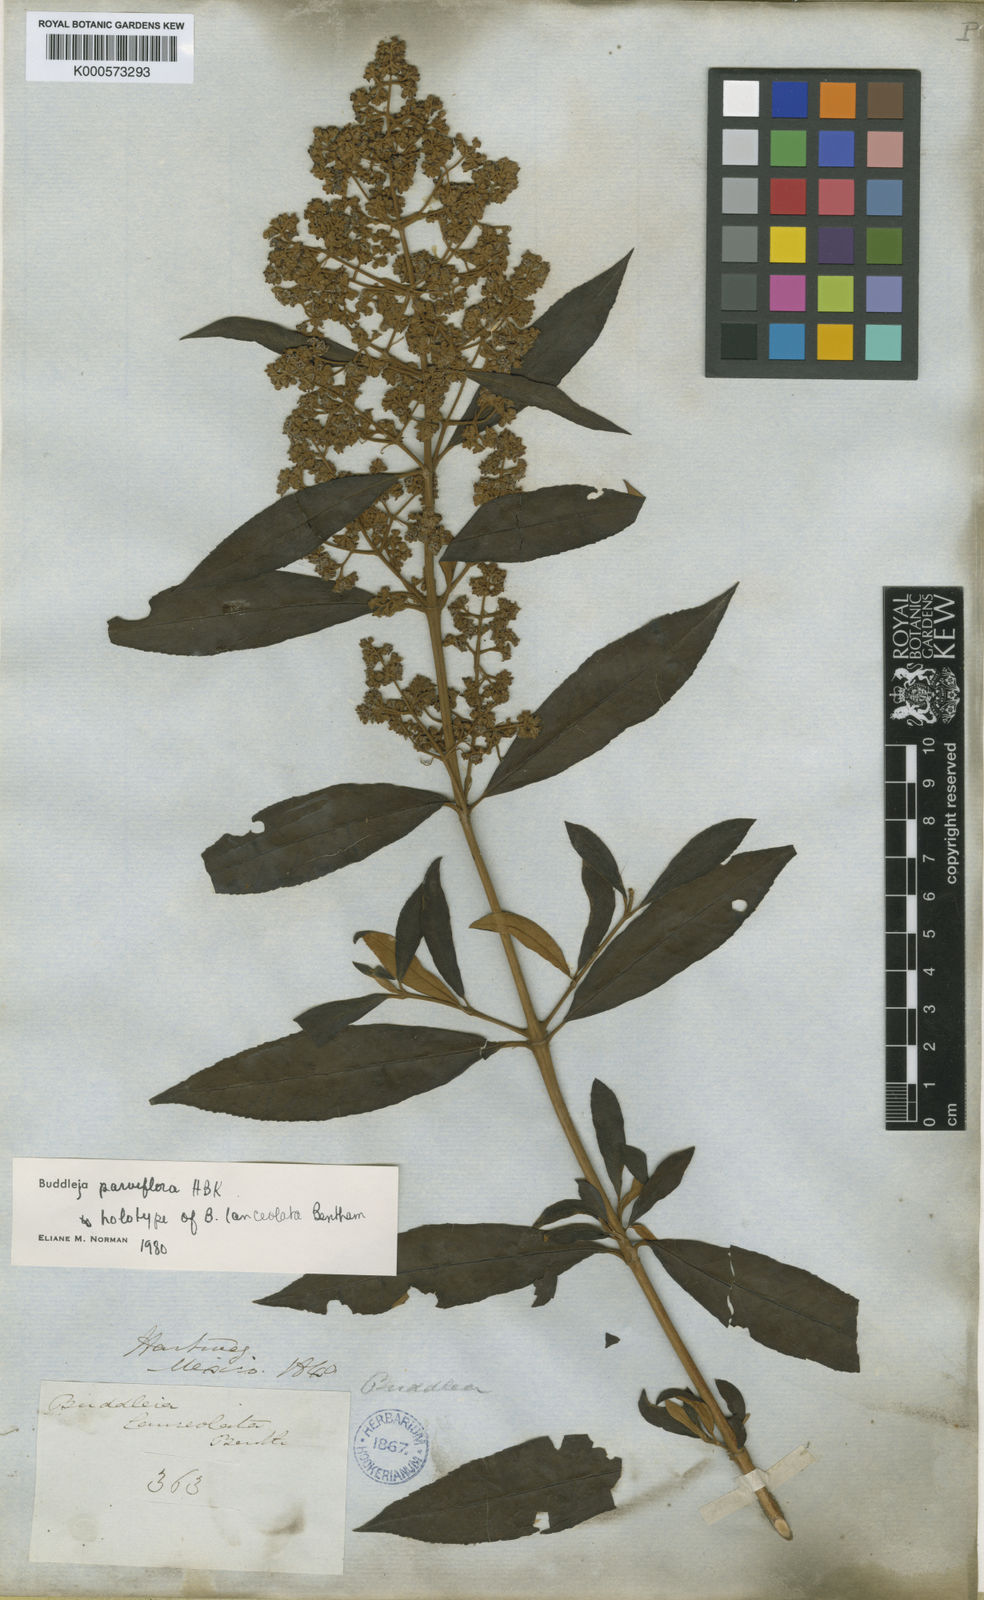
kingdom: Plantae
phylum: Tracheophyta
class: Magnoliopsida
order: Lamiales
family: Scrophulariaceae
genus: Buddleja
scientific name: Buddleja parviflora
